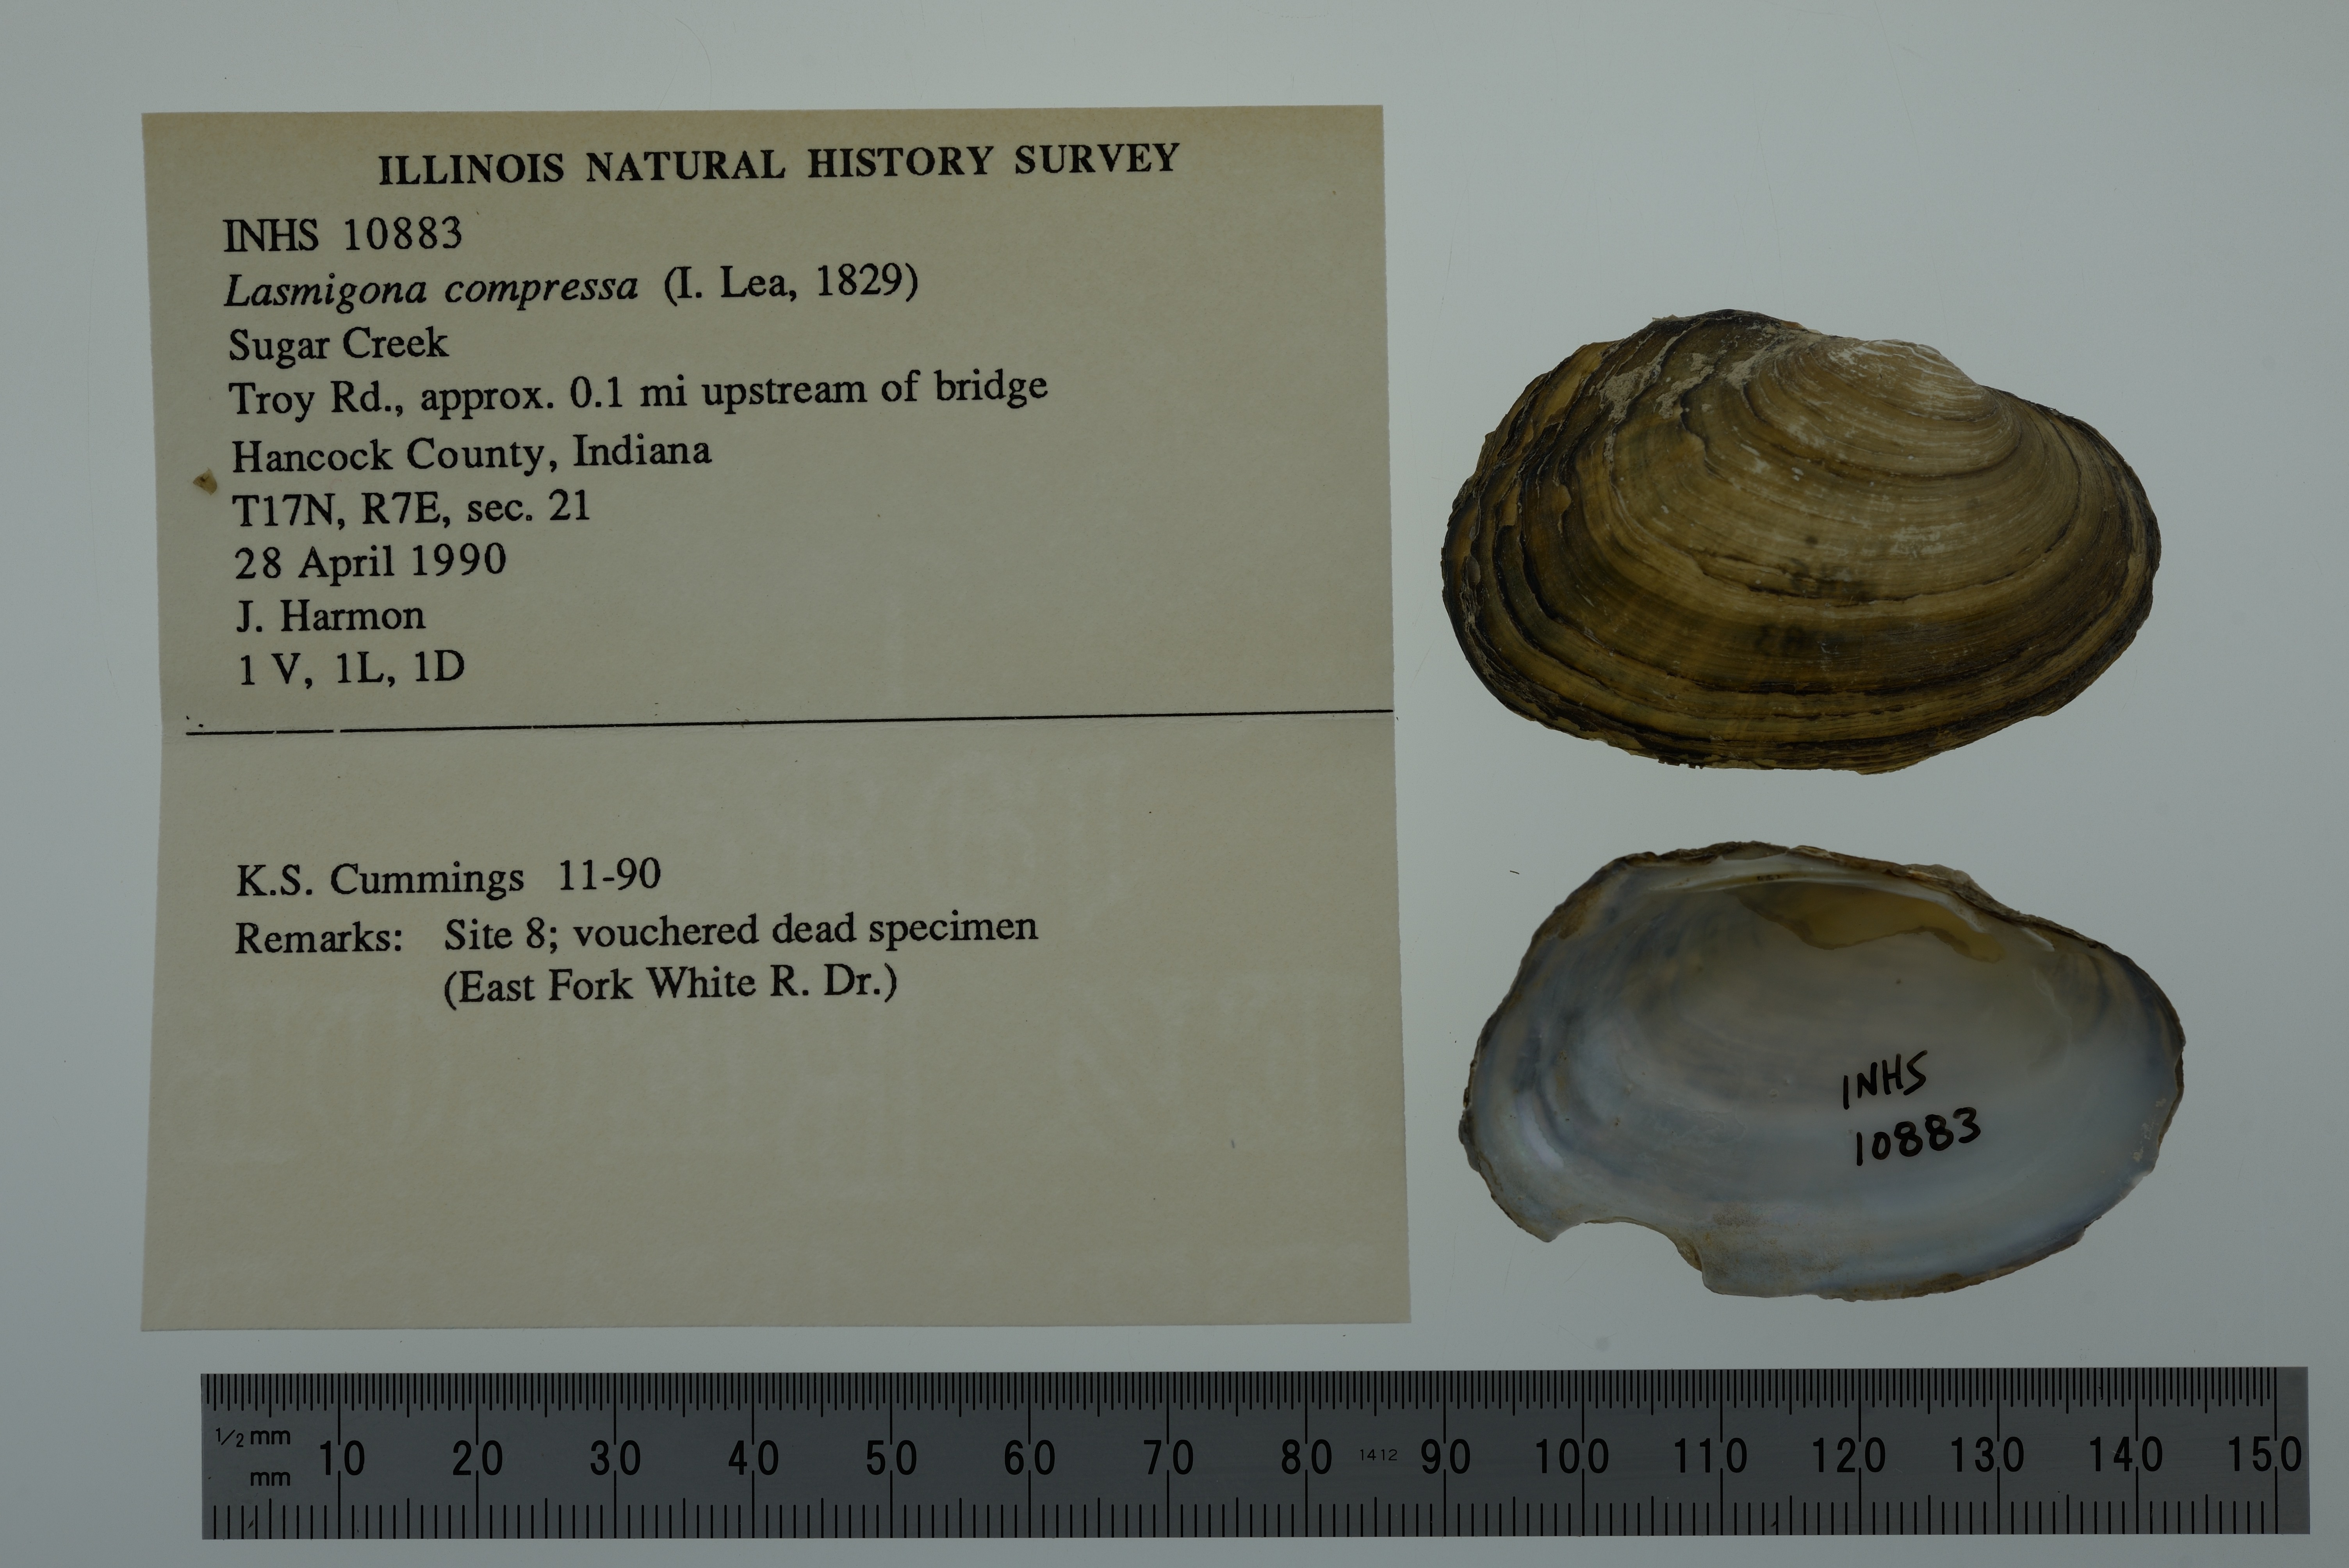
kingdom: Animalia
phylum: Mollusca
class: Bivalvia
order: Unionida
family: Unionidae
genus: Lasmigona
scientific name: Lasmigona compressa
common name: Creek heelsplitter
